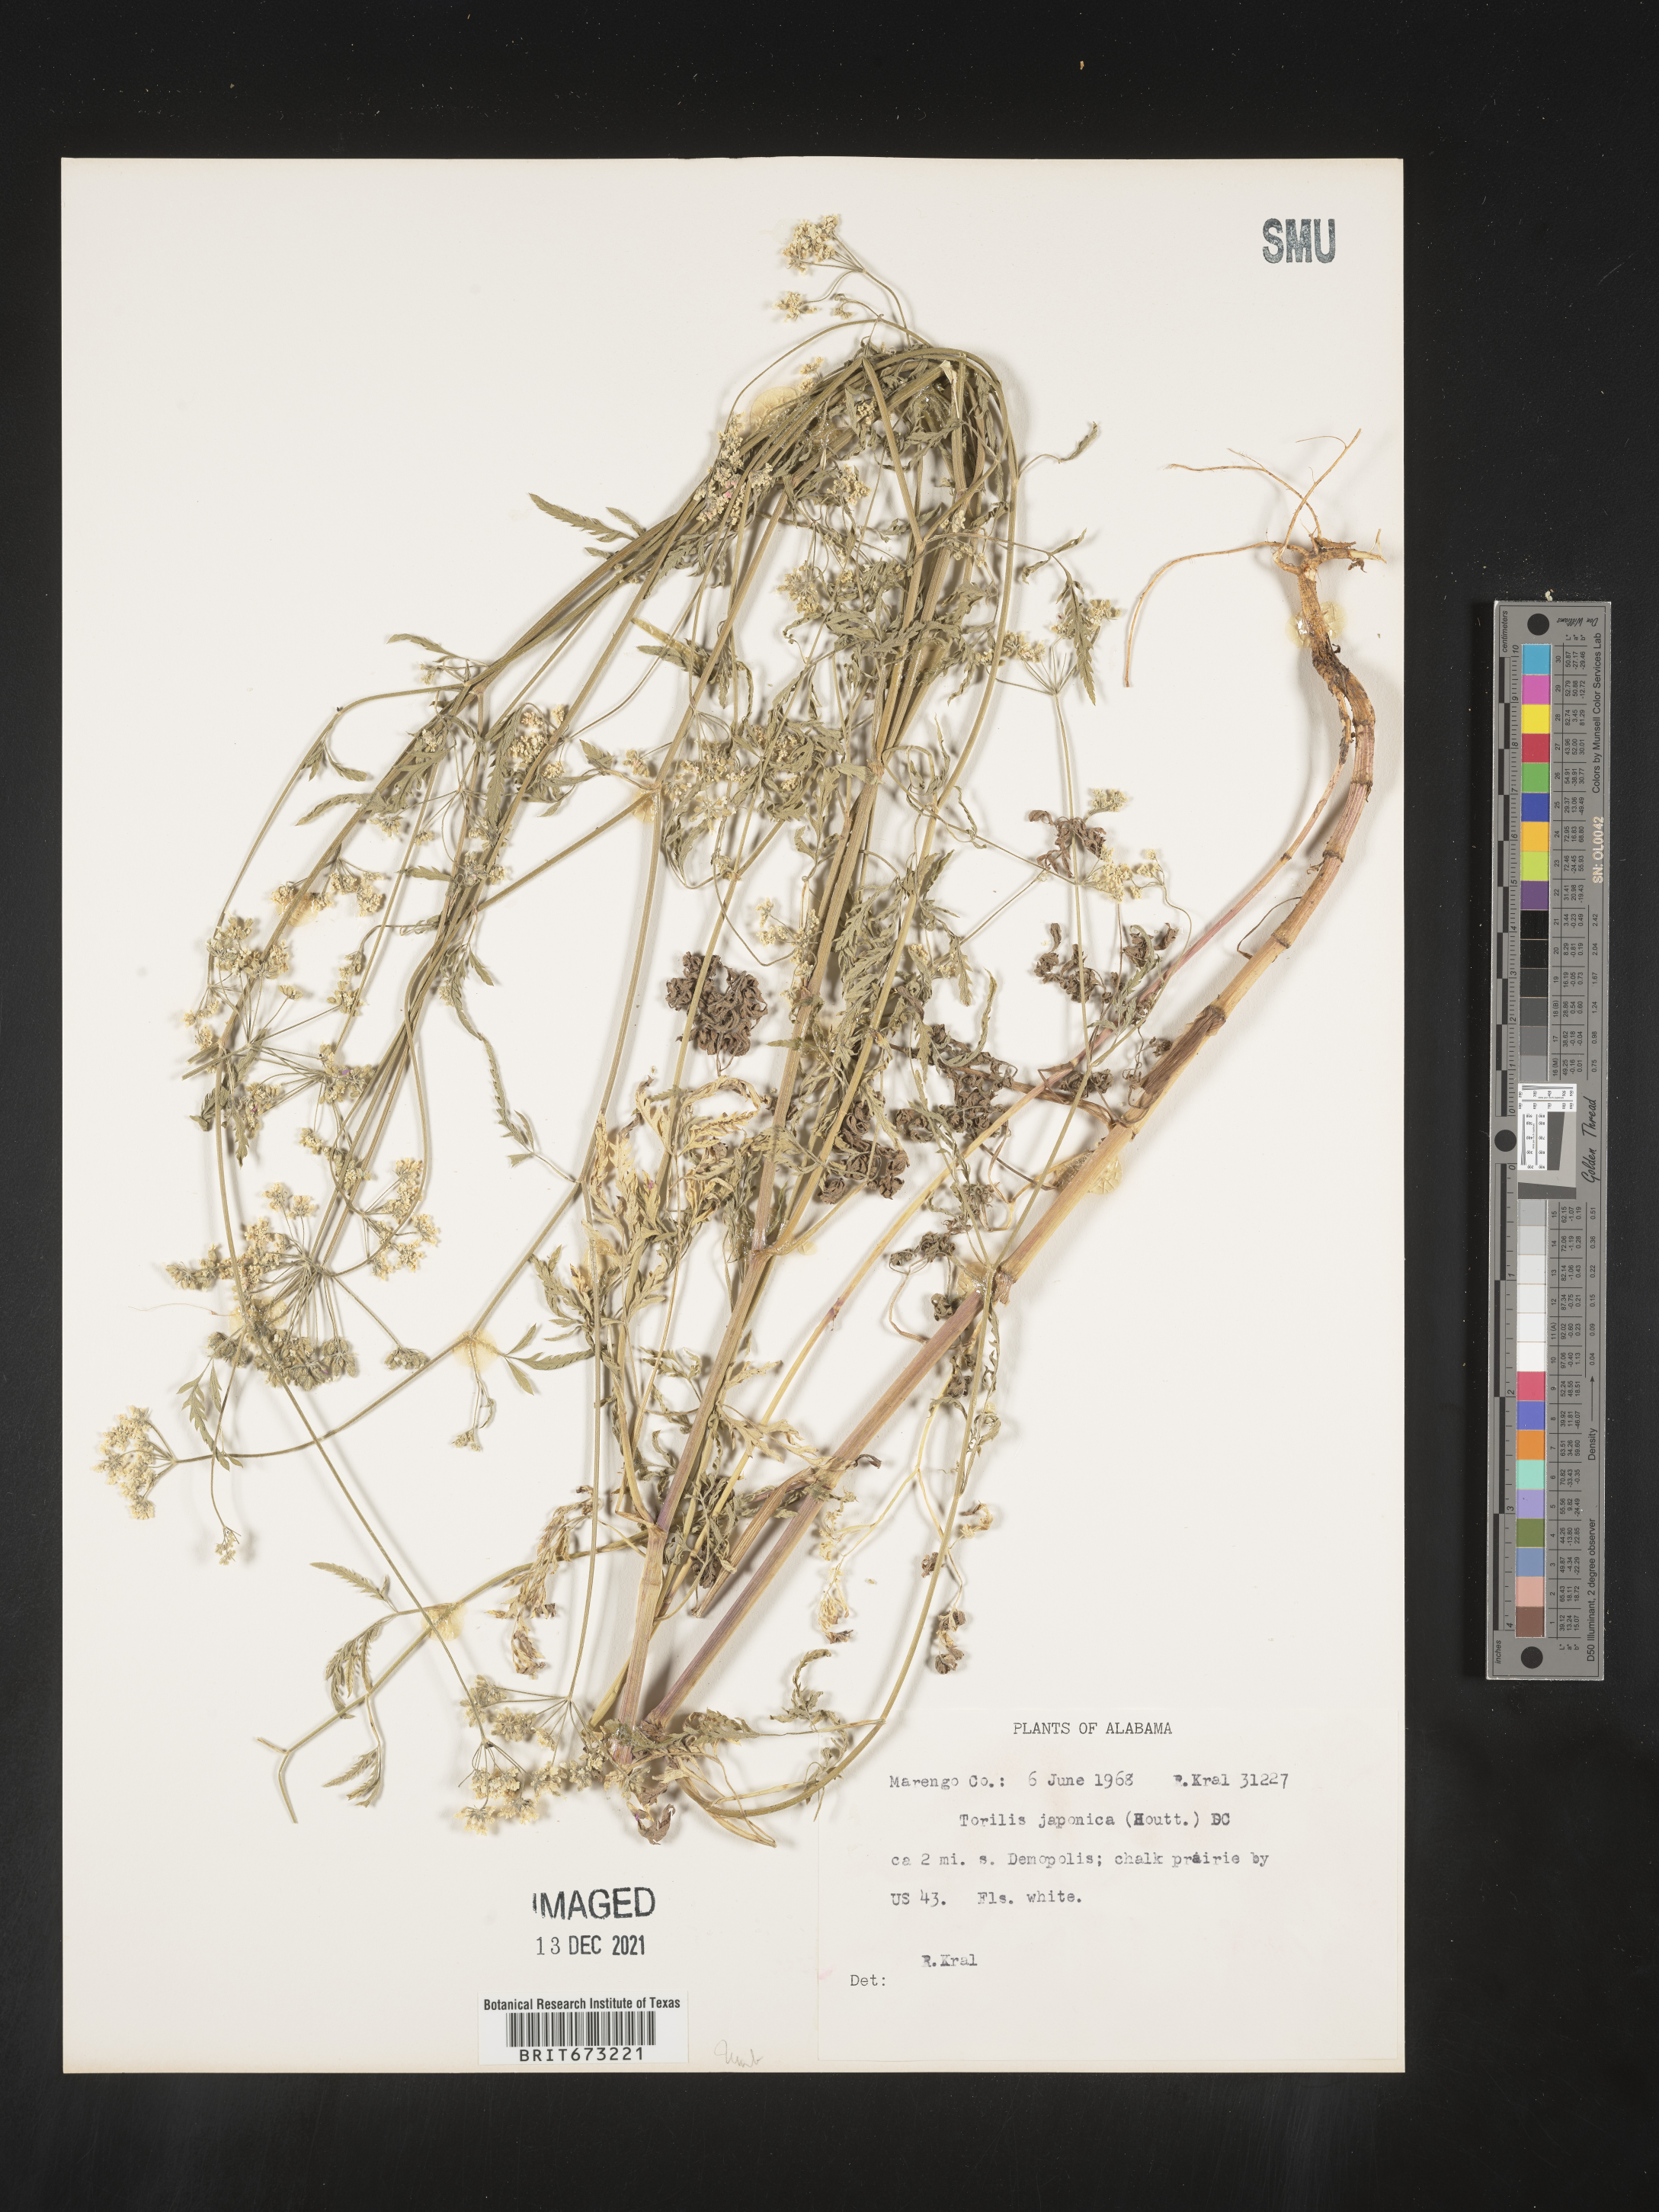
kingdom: Plantae
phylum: Tracheophyta
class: Magnoliopsida
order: Apiales
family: Apiaceae
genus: Torilis
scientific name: Torilis japonica
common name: Upright hedge-parsley
